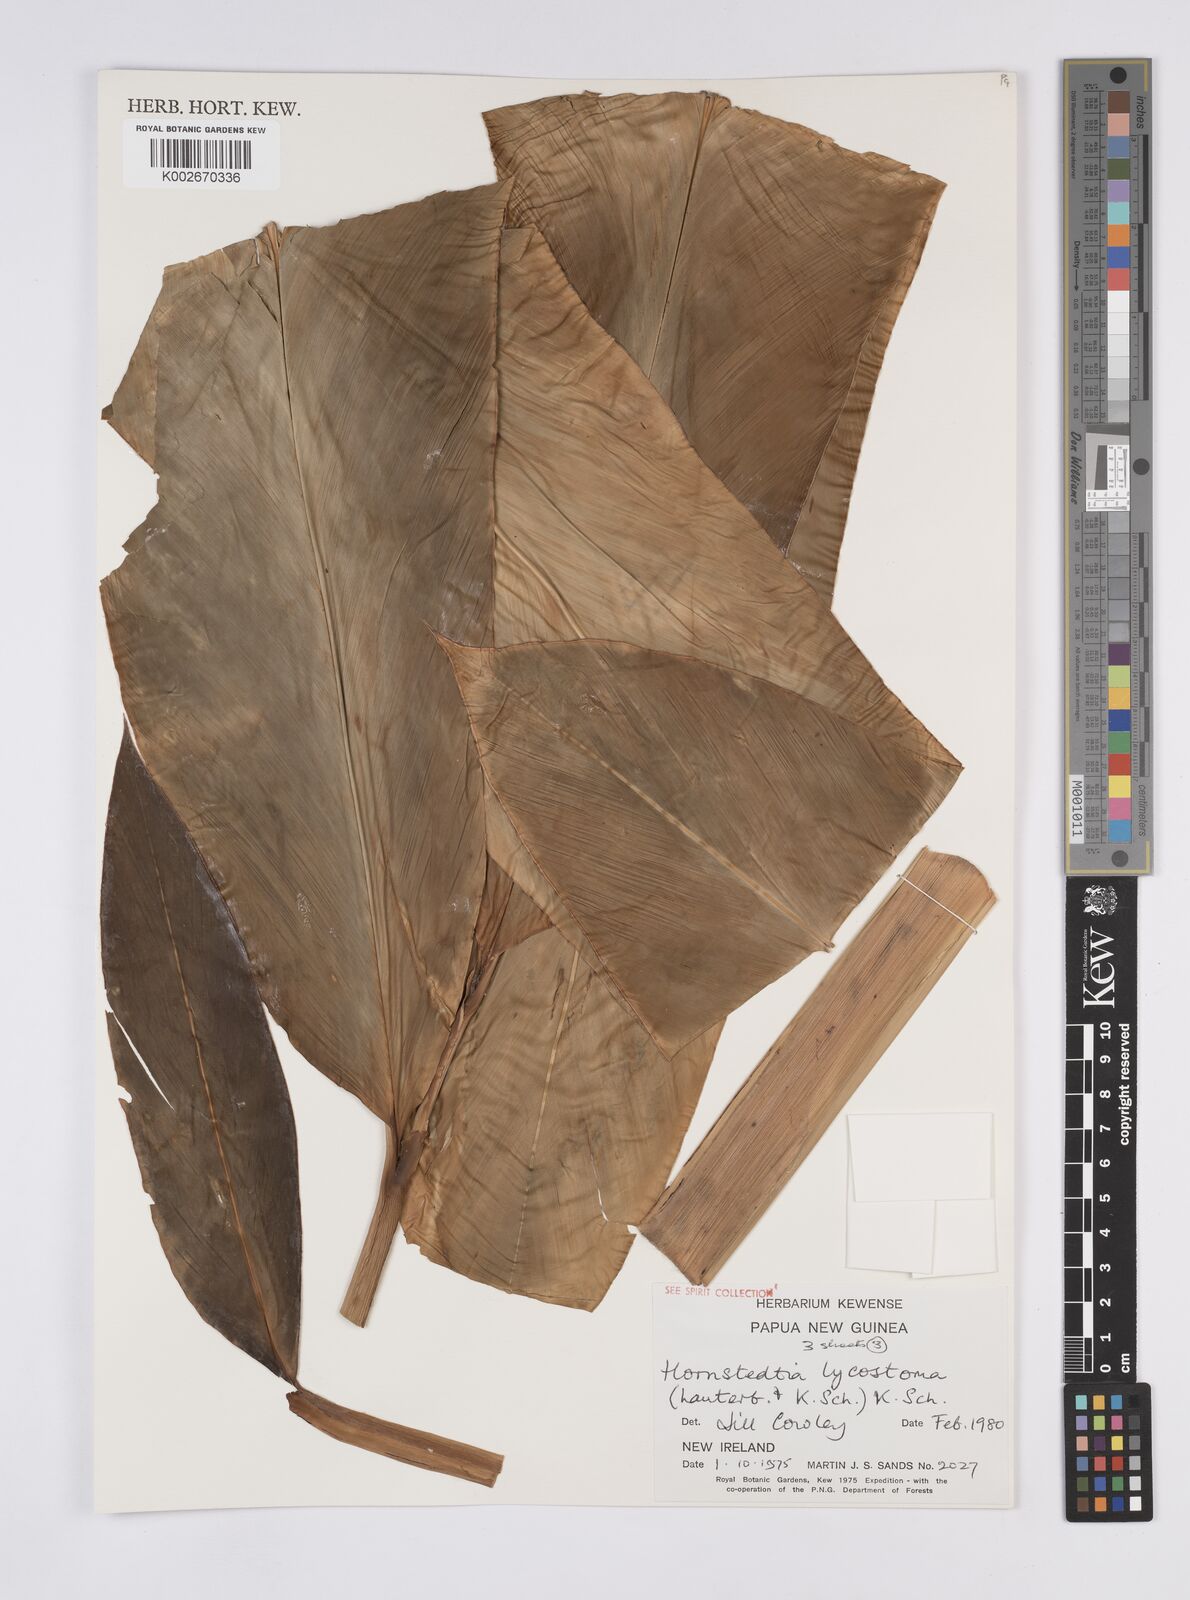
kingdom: Plantae
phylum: Tracheophyta
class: Liliopsida
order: Zingiberales
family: Zingiberaceae
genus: Hornstedtia
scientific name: Hornstedtia scottiana
